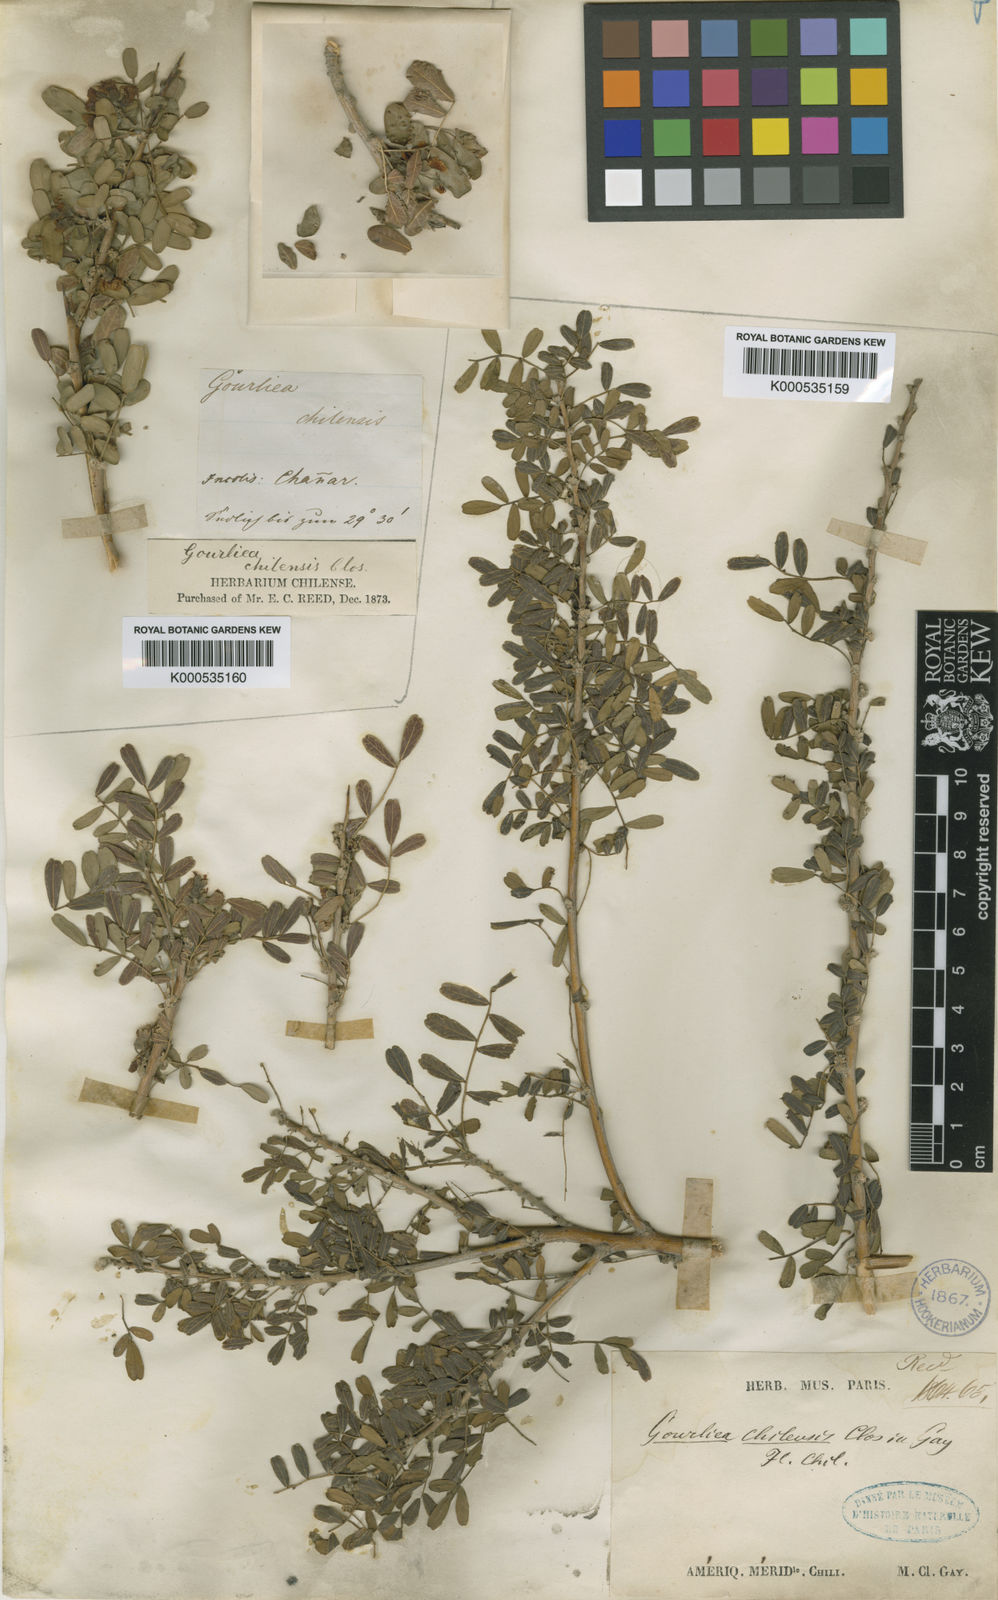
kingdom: Plantae
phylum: Tracheophyta
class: Magnoliopsida
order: Fabales
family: Fabaceae
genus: Geoffroea
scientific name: Geoffroea decorticans
